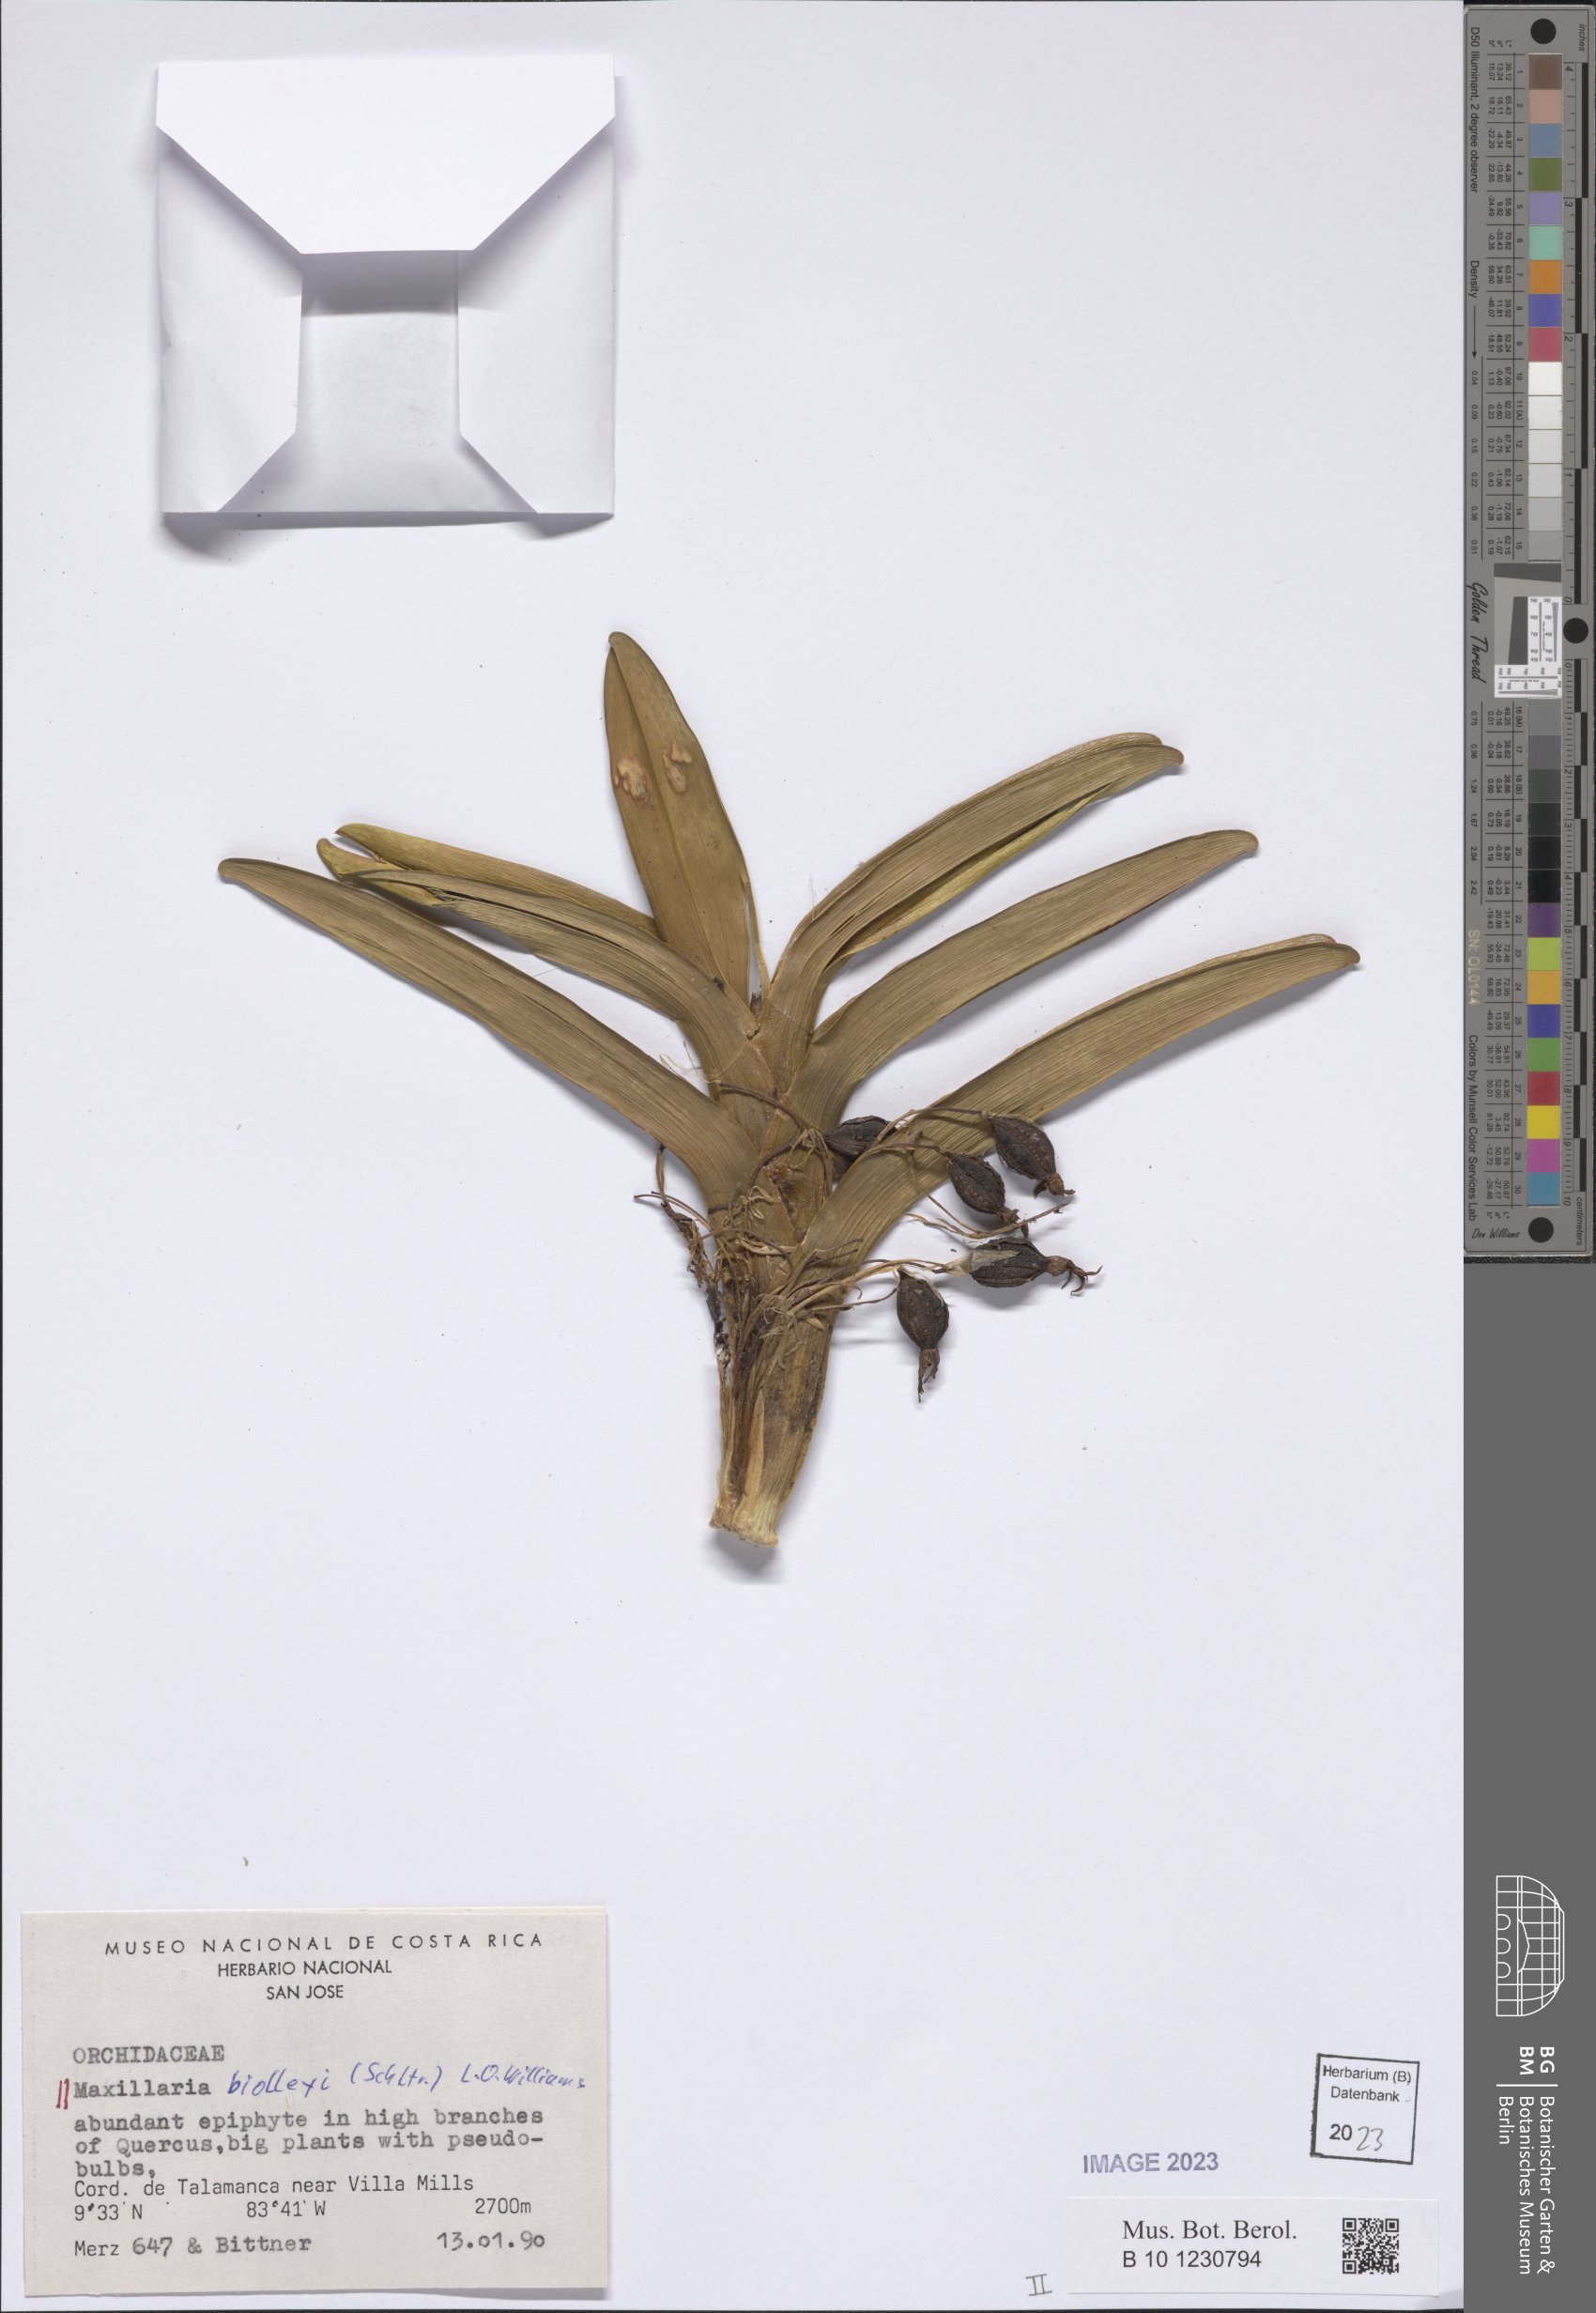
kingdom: Plantae
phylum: Tracheophyta
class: Liliopsida
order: Asparagales
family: Orchidaceae
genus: Maxillaria
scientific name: Maxillaria biolleyi
